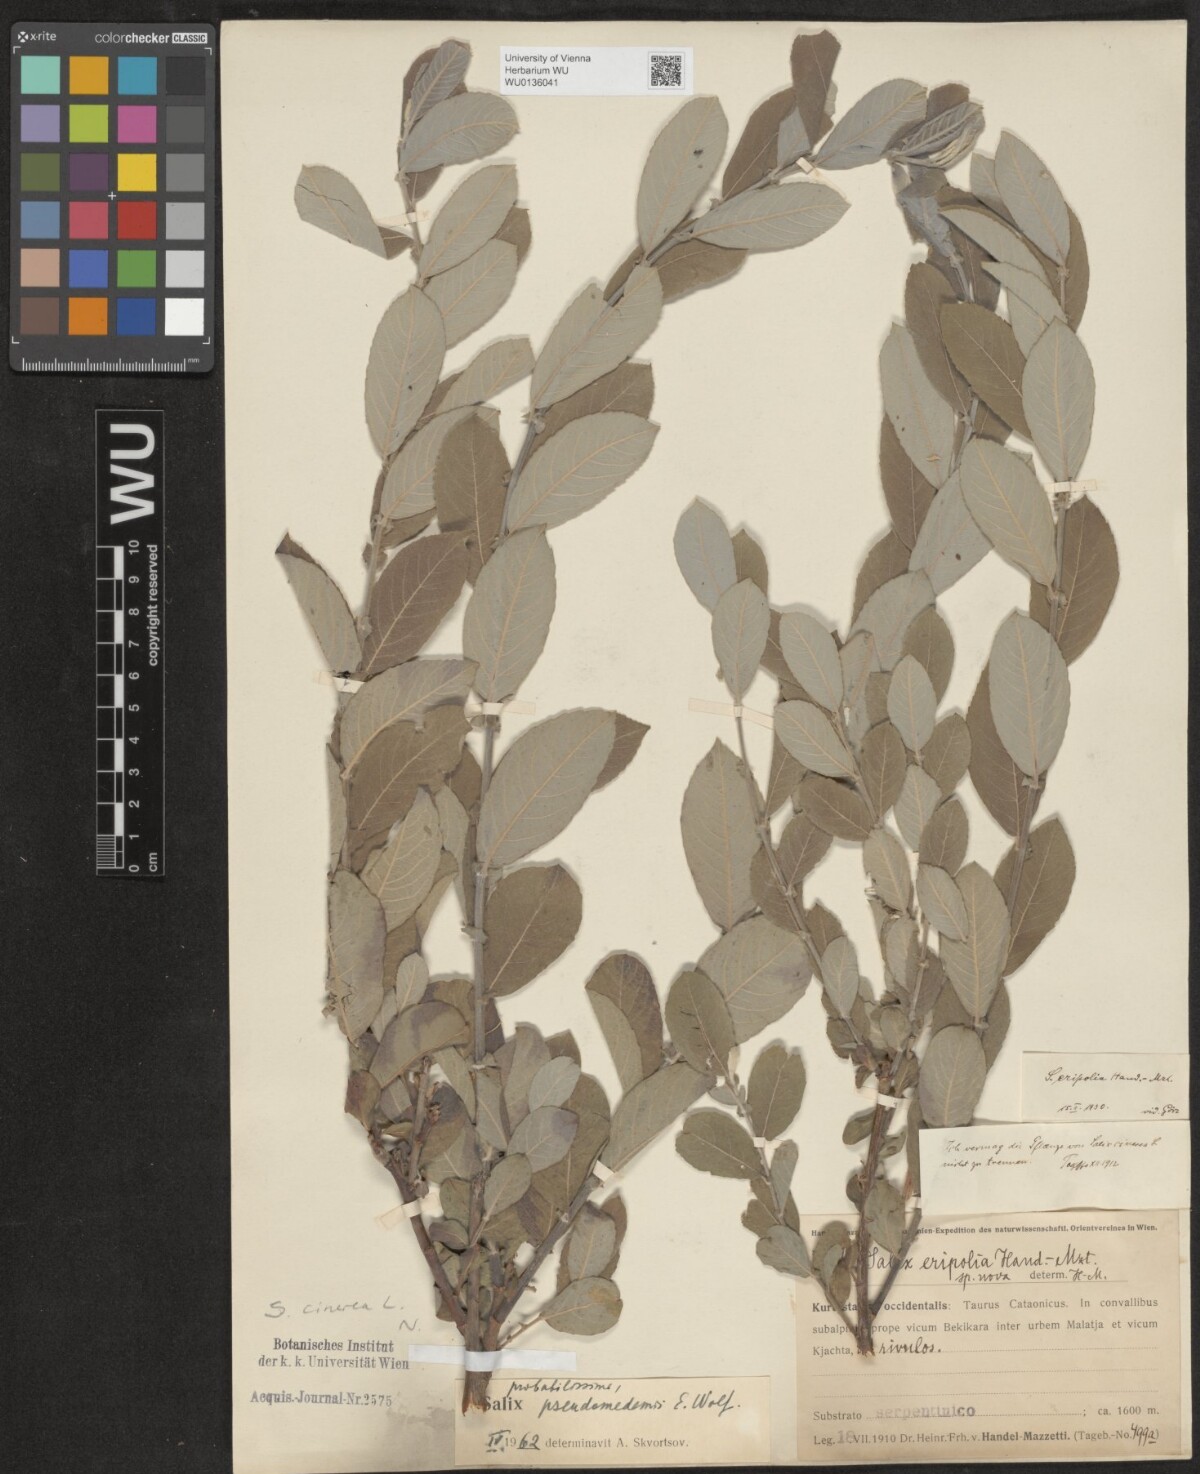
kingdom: Plantae
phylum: Tracheophyta
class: Magnoliopsida
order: Malpighiales
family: Salicaceae
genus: Salix
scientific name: Salix cinerea
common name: Common sallow
